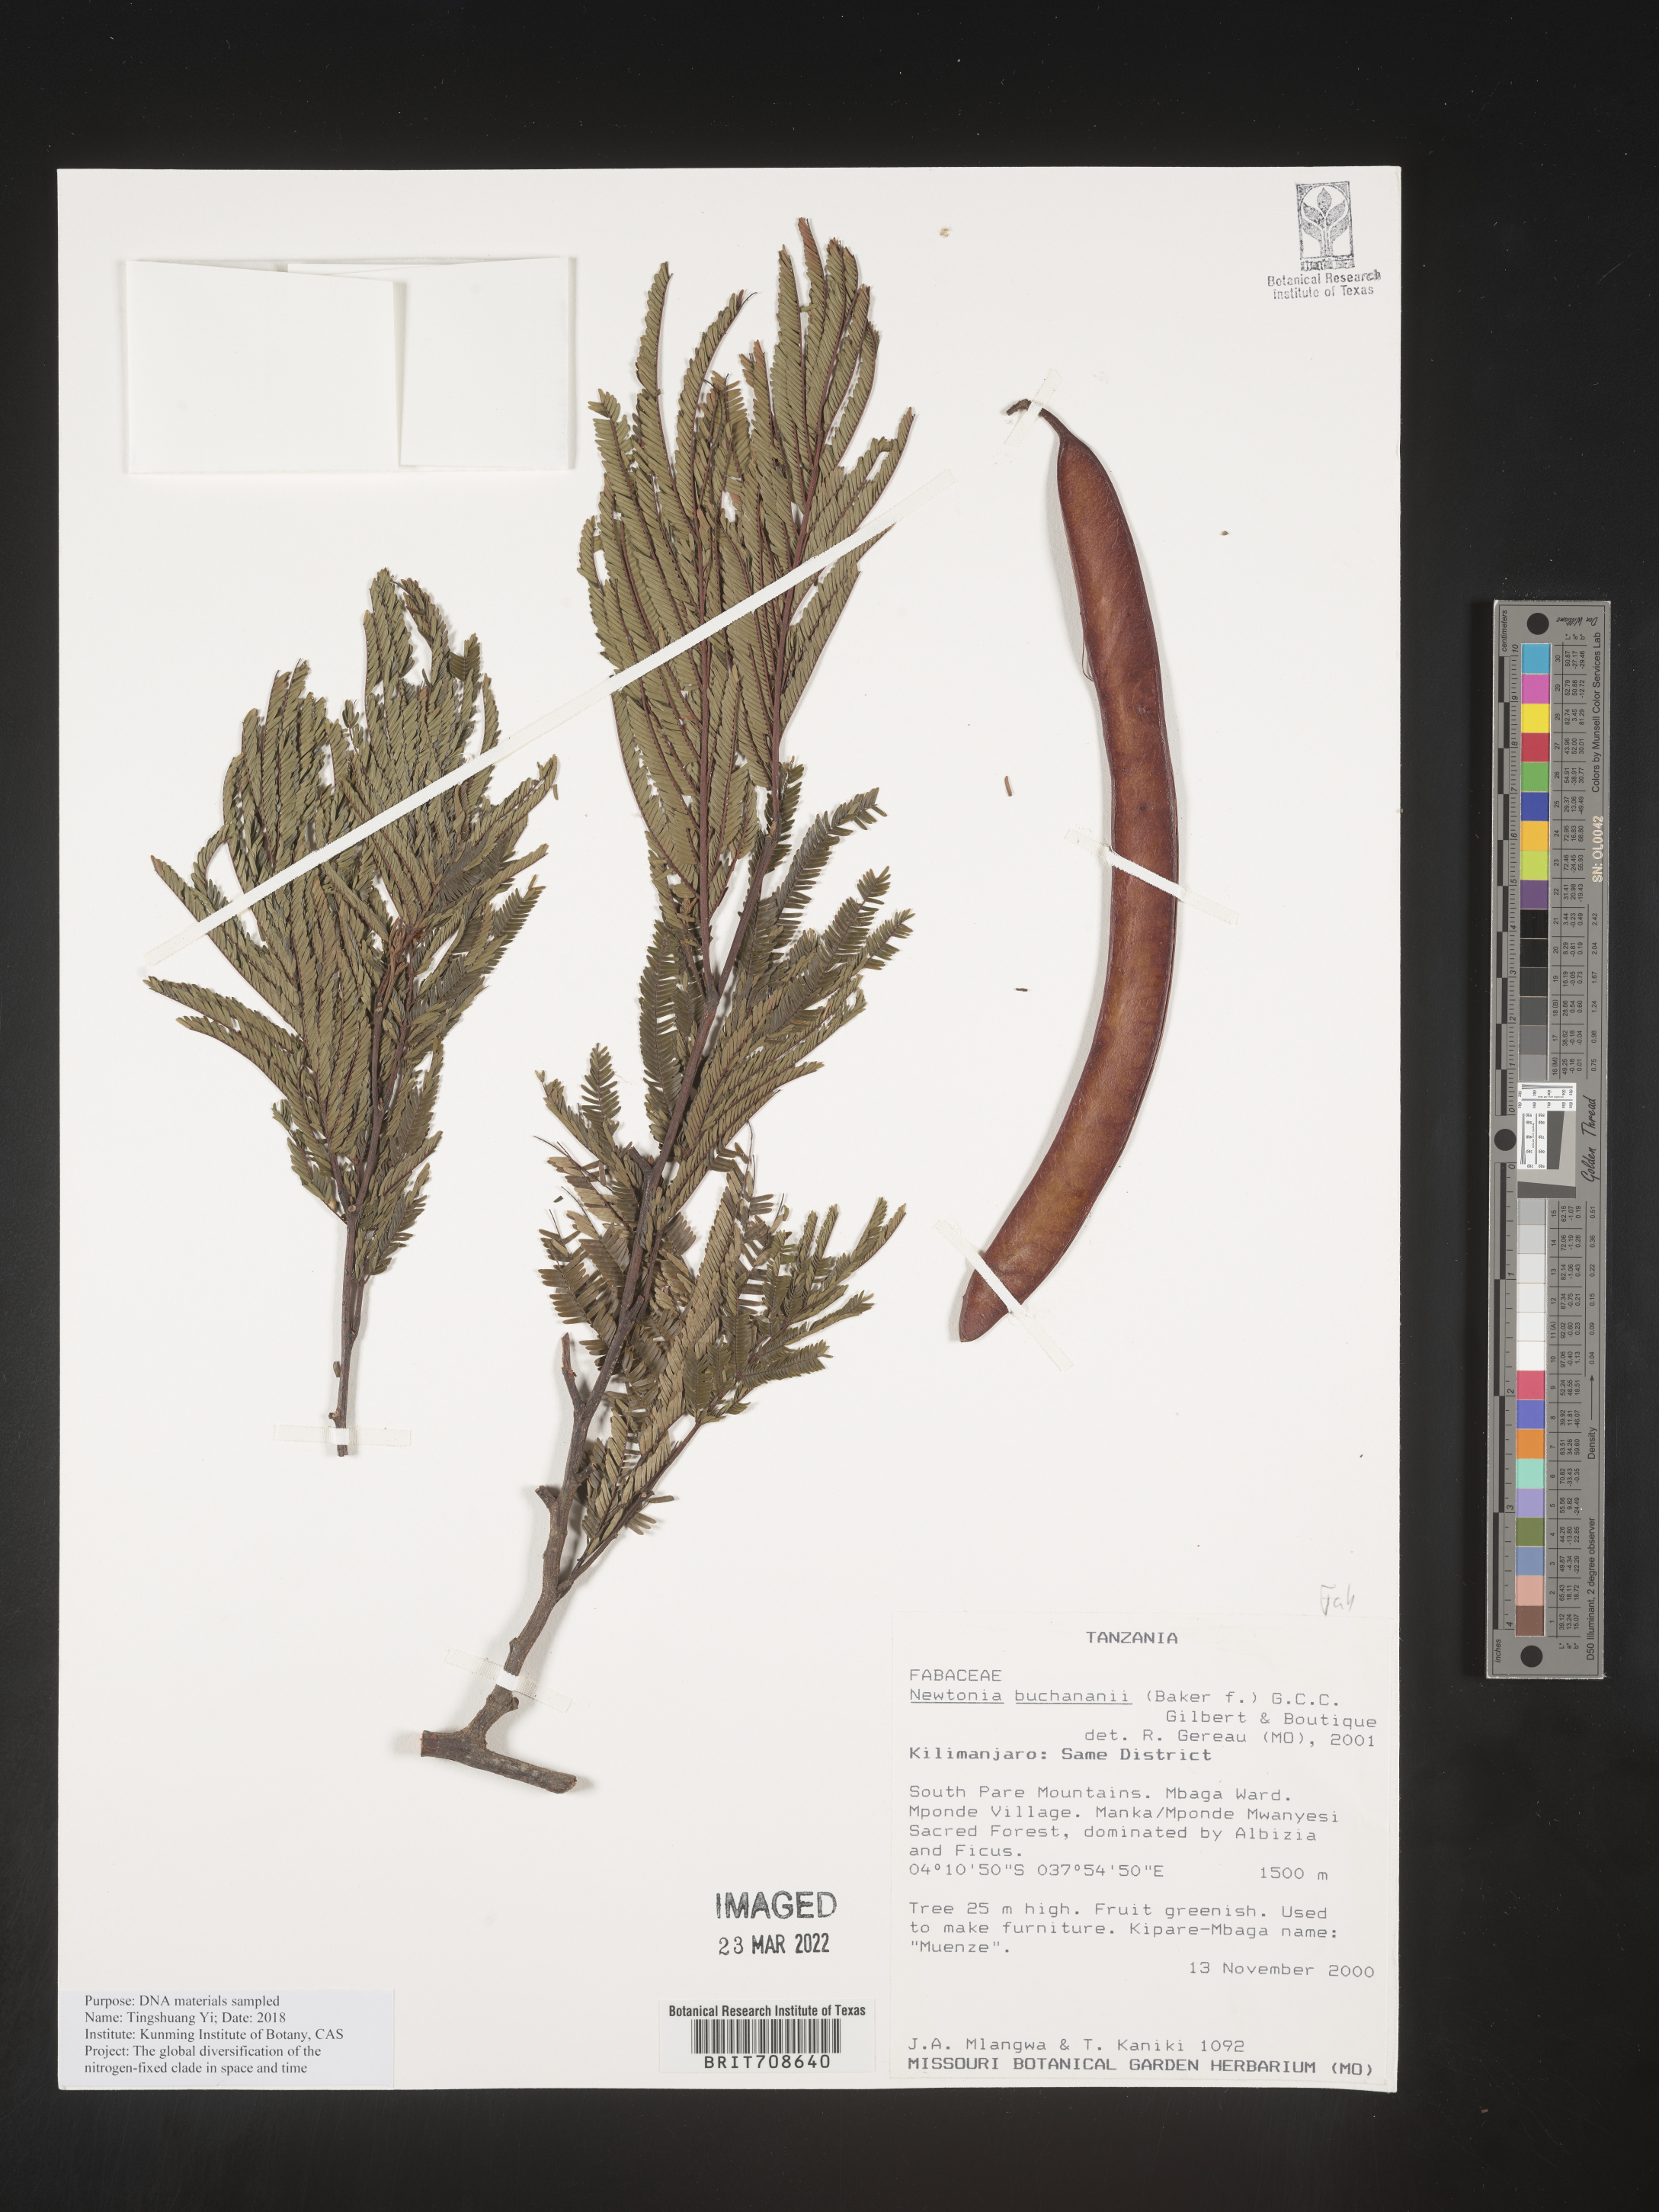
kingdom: Plantae
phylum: Tracheophyta
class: Magnoliopsida
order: Fabales
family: Fabaceae
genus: Newtonia
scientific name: Newtonia
